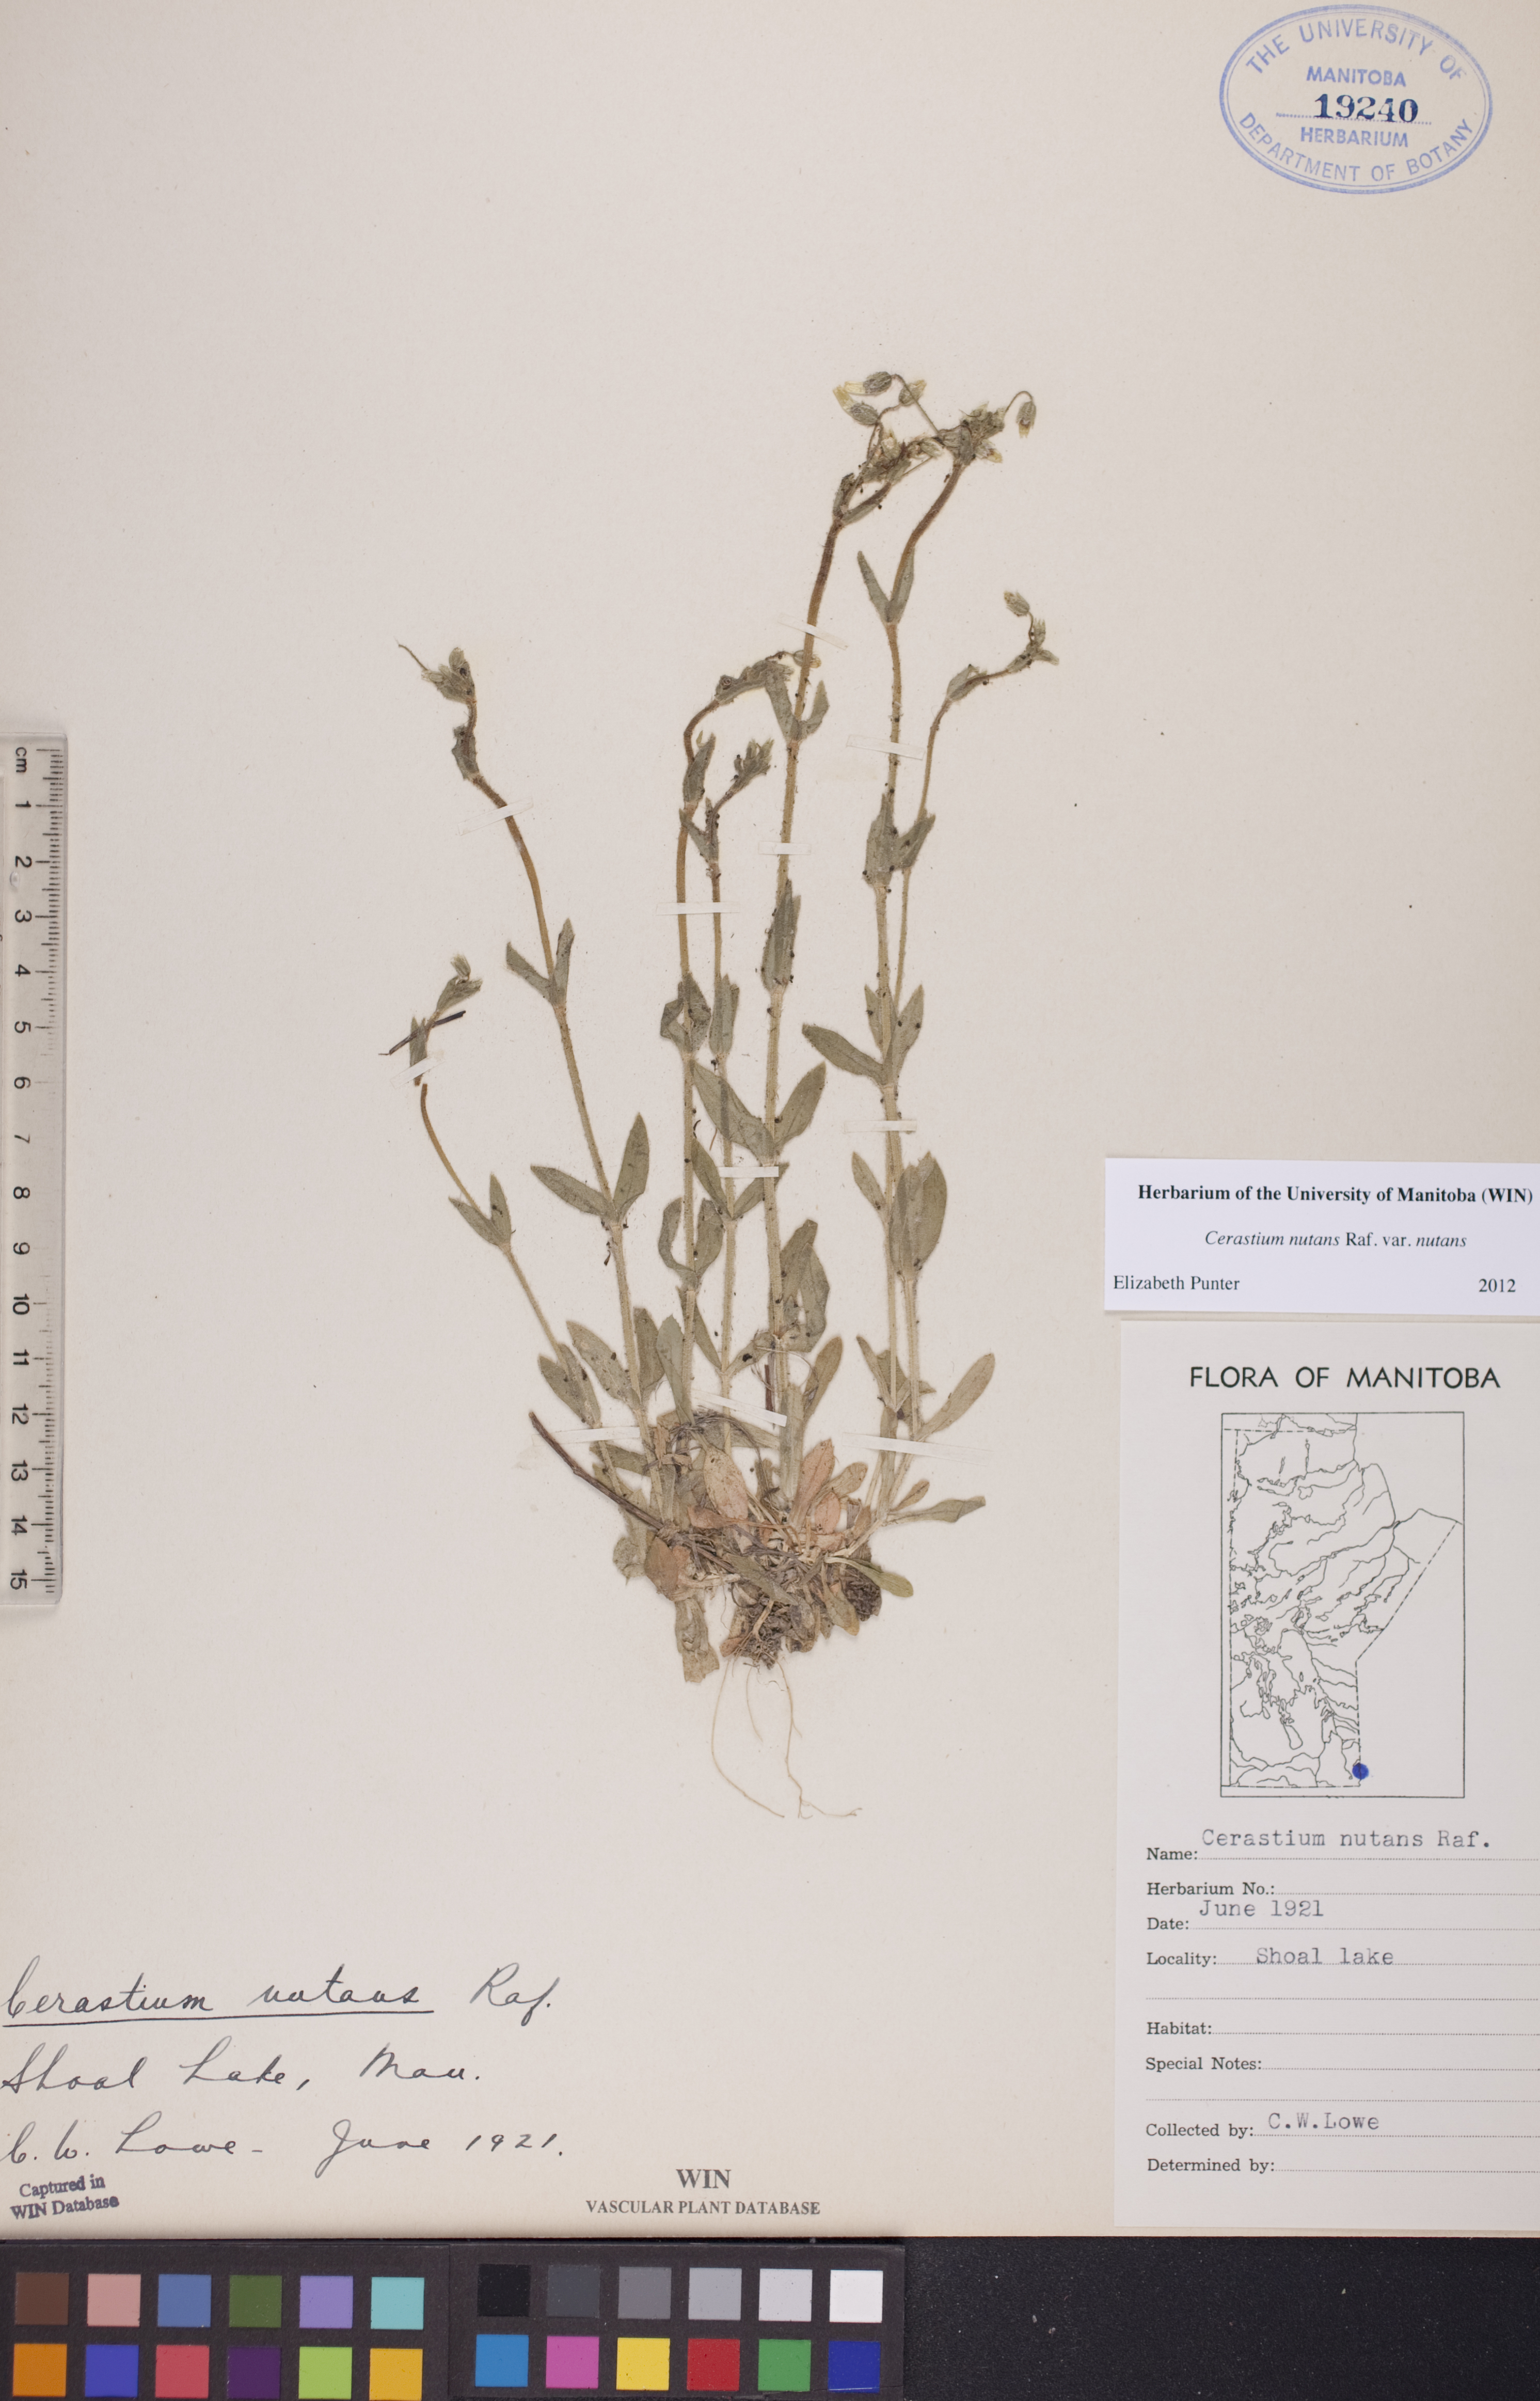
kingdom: Plantae
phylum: Tracheophyta
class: Magnoliopsida
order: Caryophyllales
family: Caryophyllaceae
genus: Cerastium
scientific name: Cerastium nutans
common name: Long-stalked chickweed
